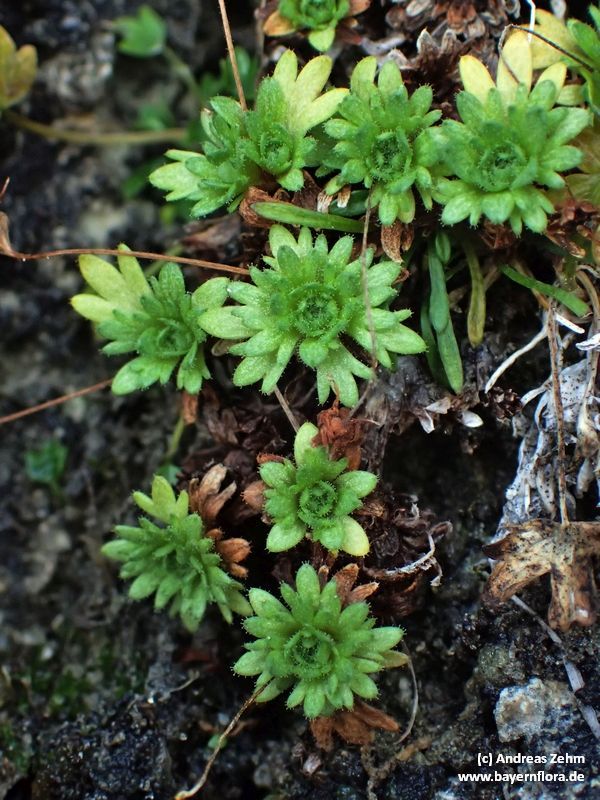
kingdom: Plantae
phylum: Tracheophyta
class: Magnoliopsida
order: Saxifragales
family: Saxifragaceae
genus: Saxifraga
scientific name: Saxifraga aphylla
